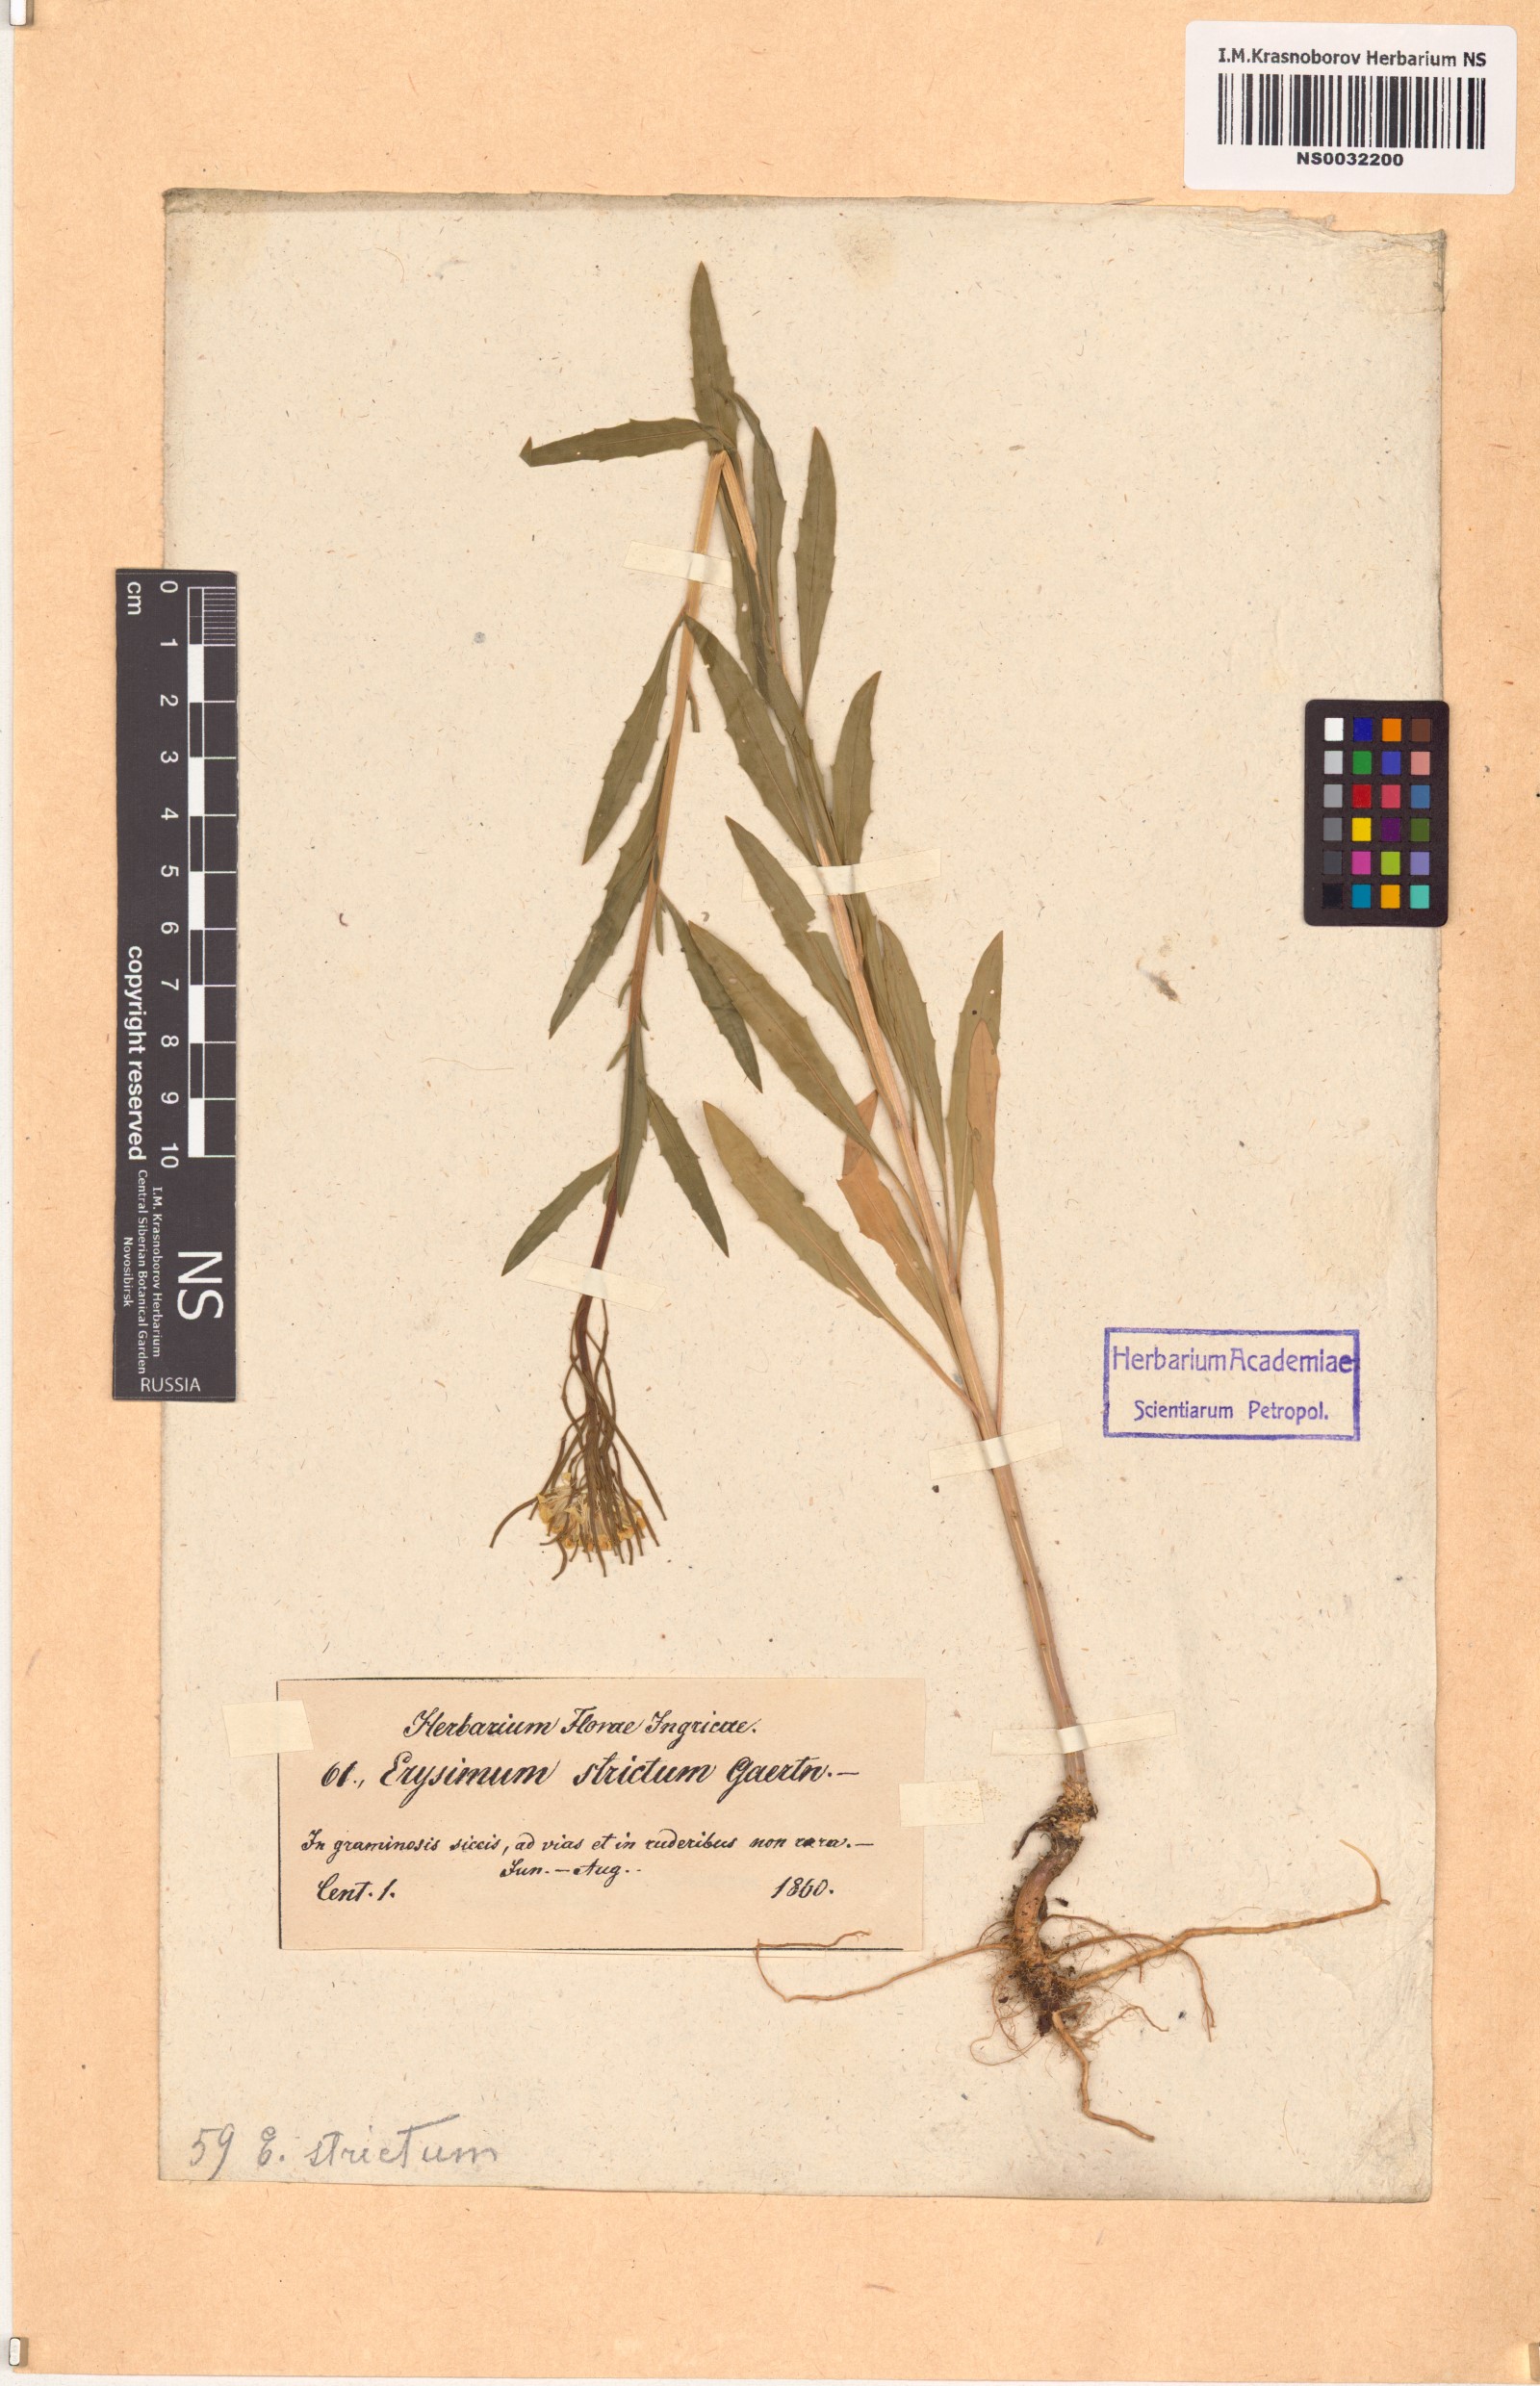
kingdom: Plantae
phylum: Tracheophyta
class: Magnoliopsida
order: Brassicales
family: Brassicaceae
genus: Erysimum
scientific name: Erysimum strictum
